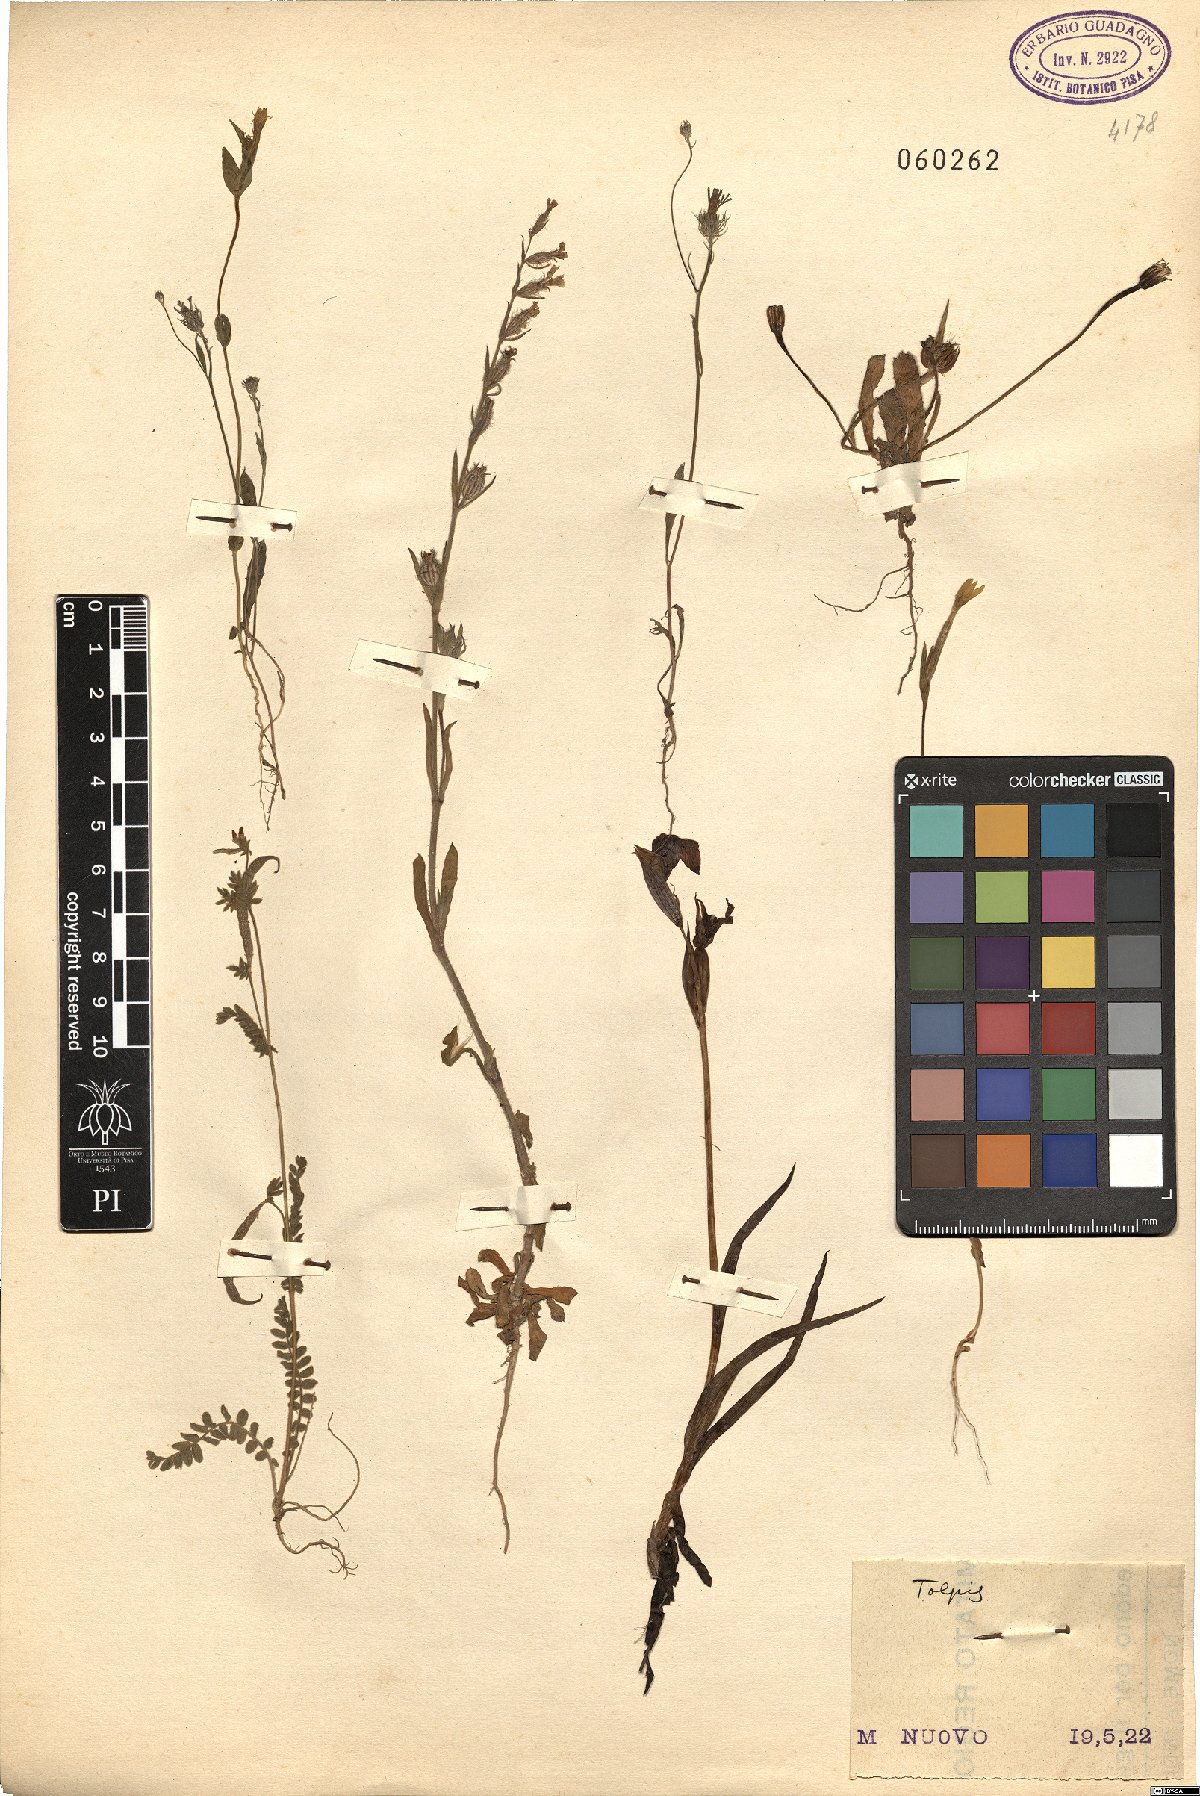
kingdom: Plantae
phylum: Tracheophyta
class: Magnoliopsida
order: Asterales
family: Asteraceae
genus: Tolpis
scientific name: Tolpis
